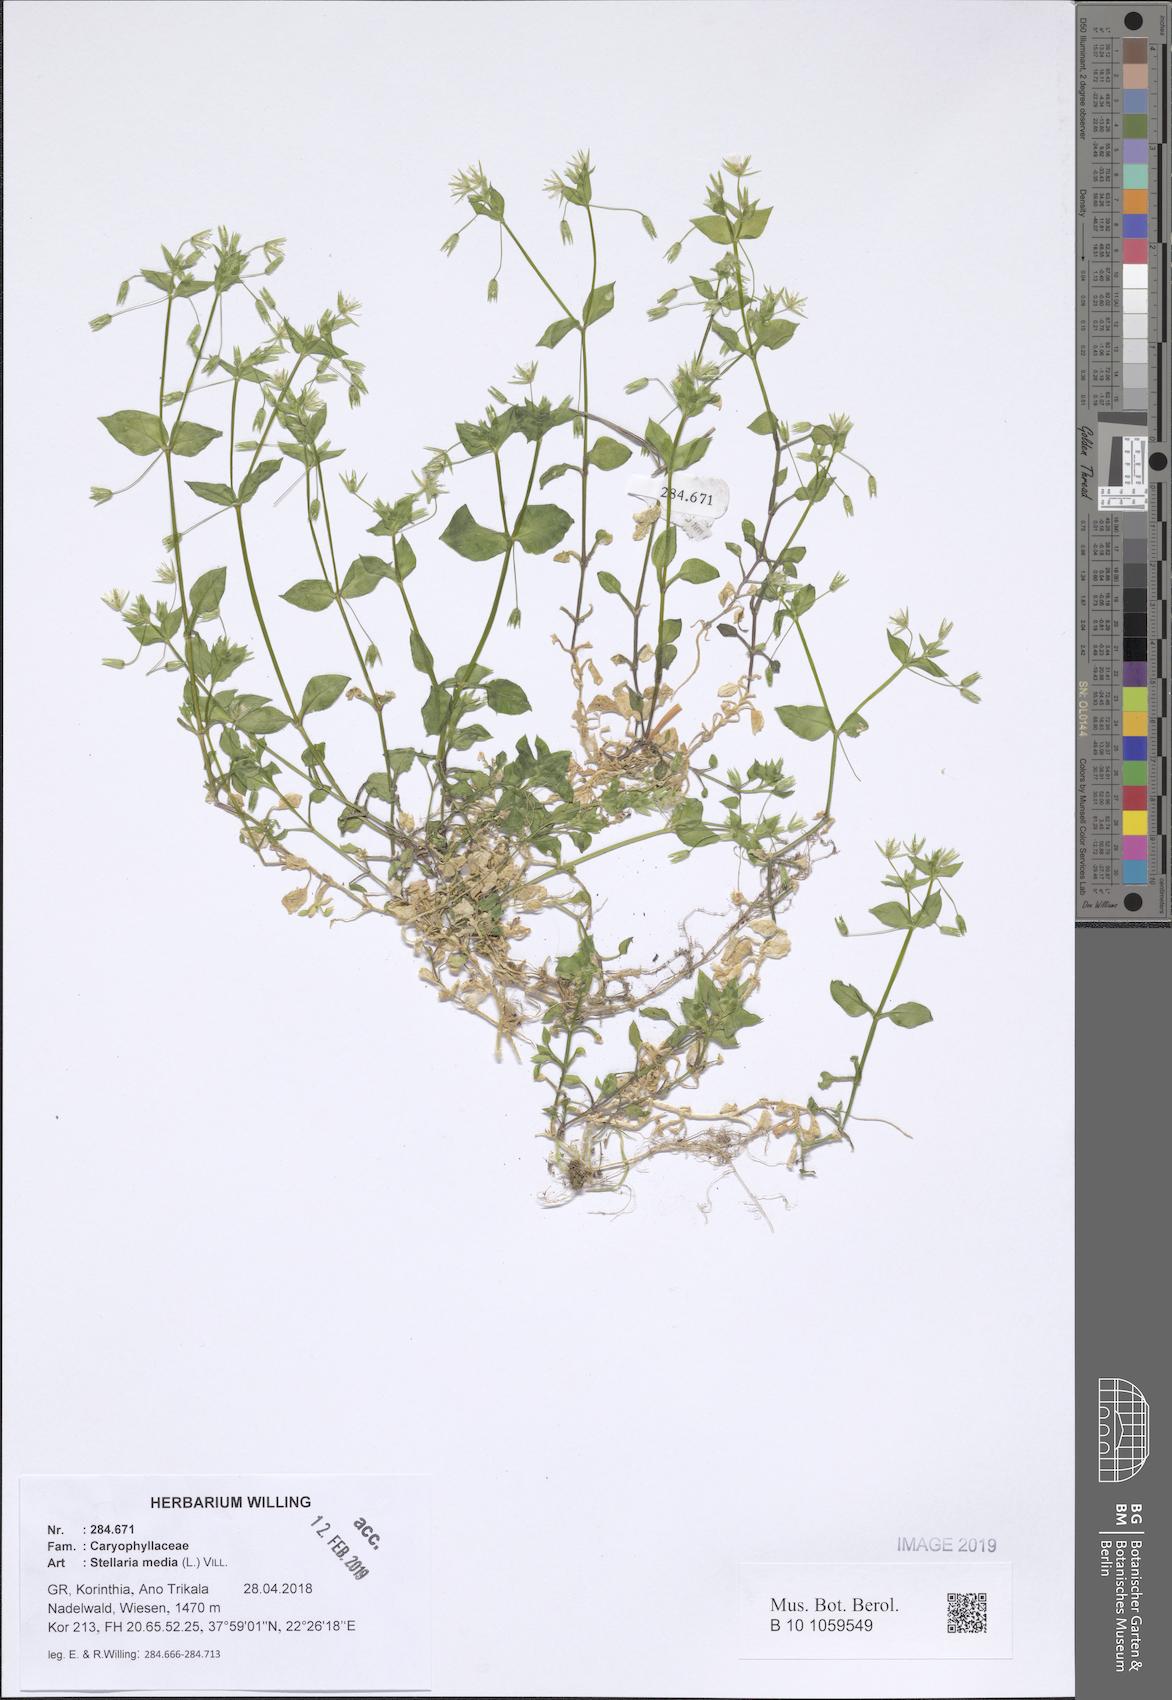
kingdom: Plantae
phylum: Tracheophyta
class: Magnoliopsida
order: Caryophyllales
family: Caryophyllaceae
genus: Stellaria
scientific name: Stellaria media
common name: Common chickweed
